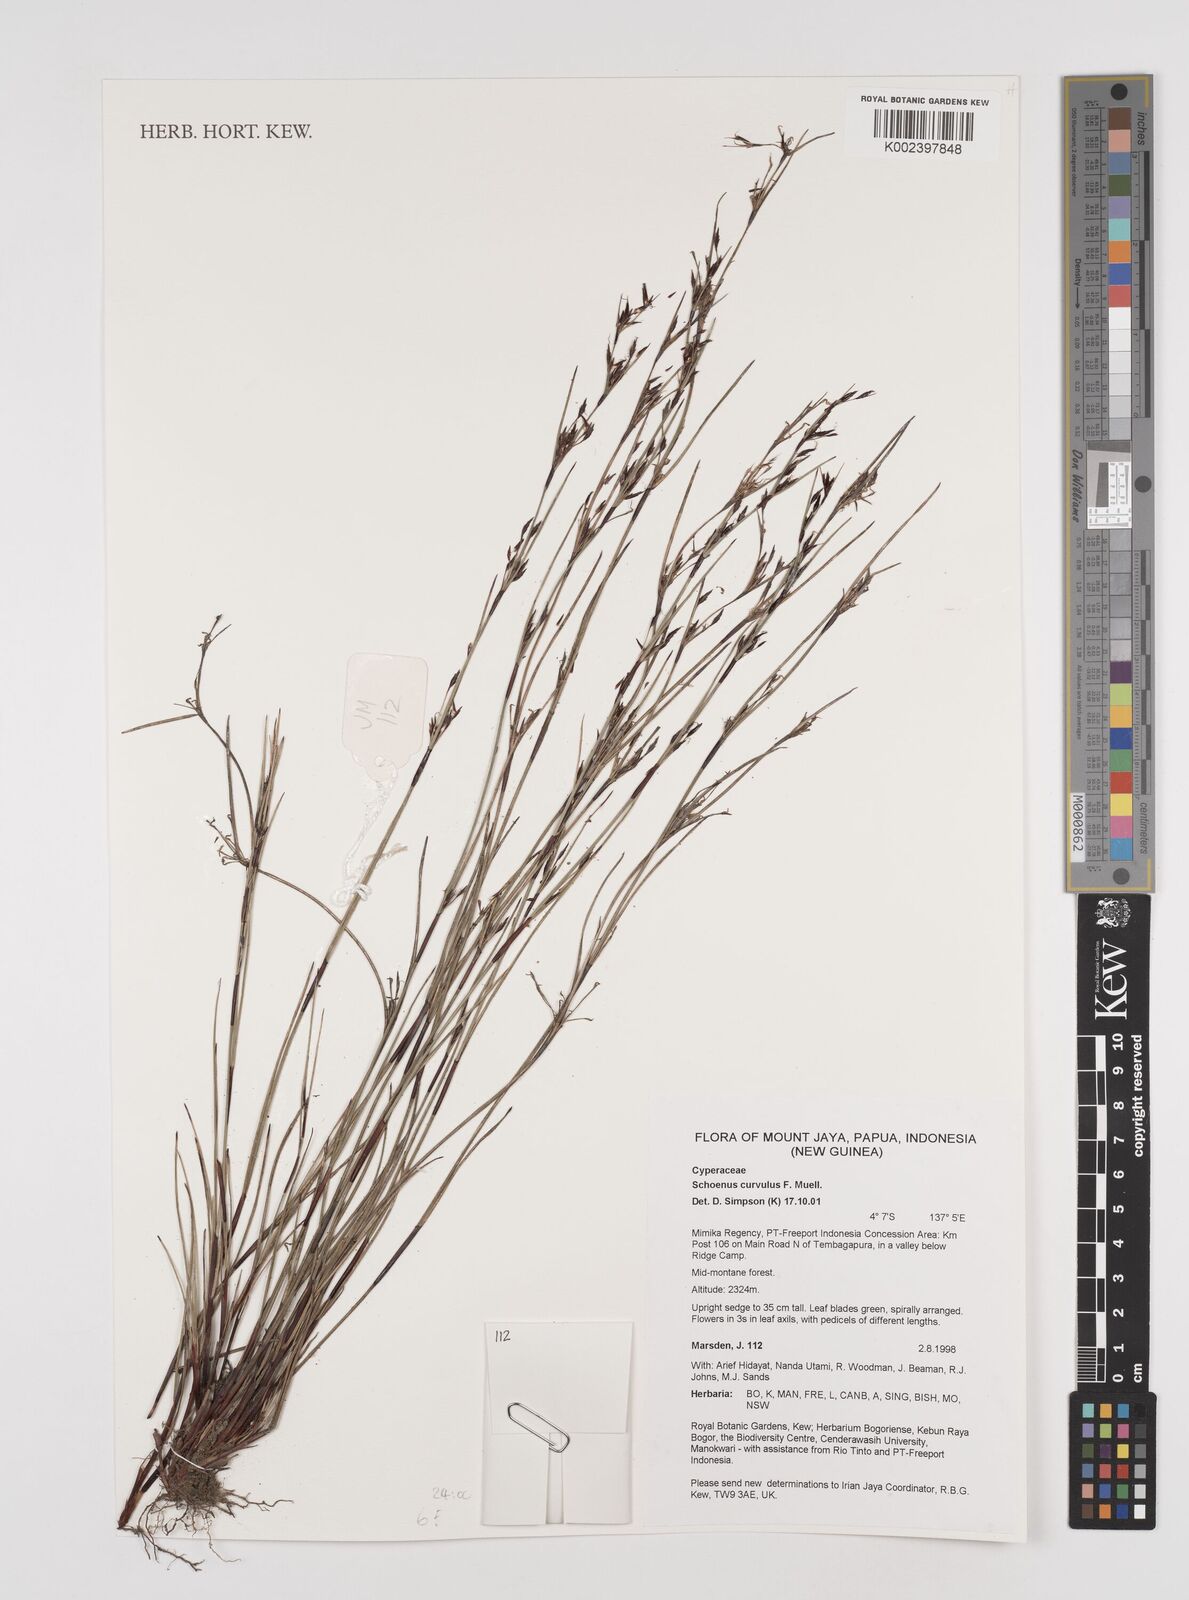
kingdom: Plantae
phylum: Tracheophyta
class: Liliopsida
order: Poales
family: Cyperaceae
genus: Schoenus
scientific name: Schoenus curvulus
